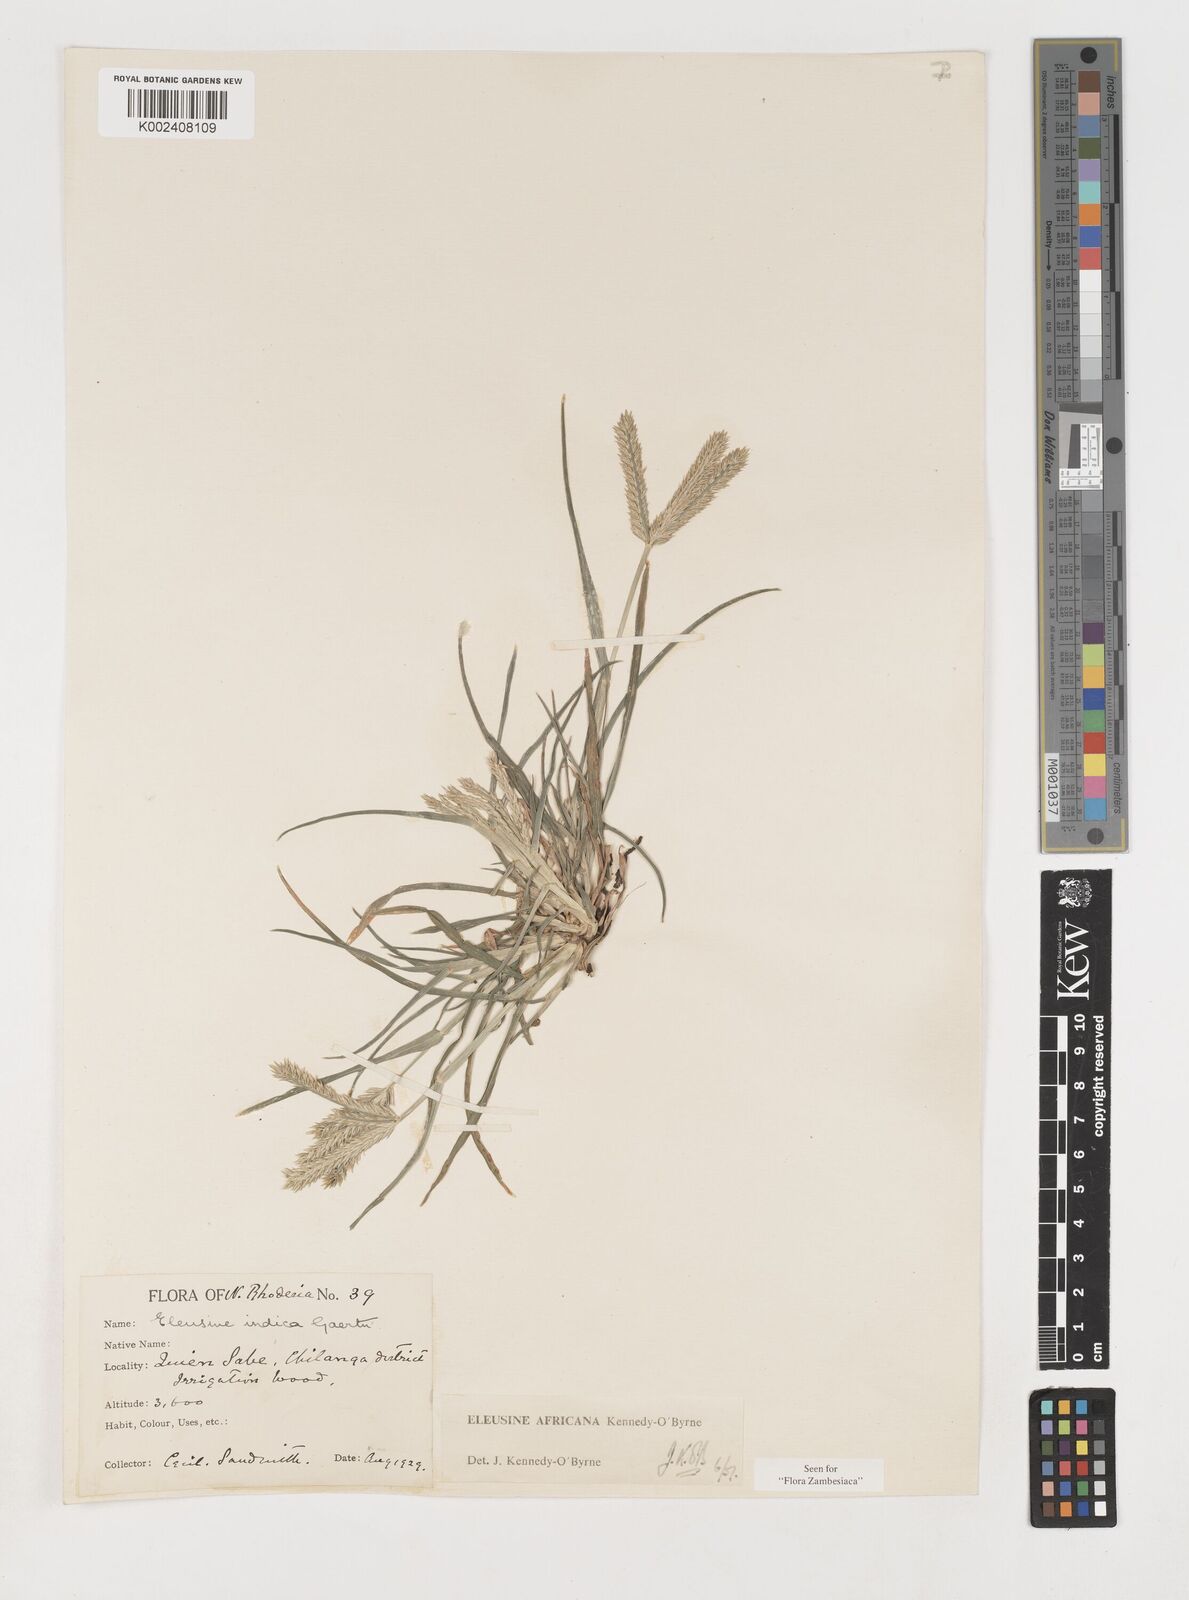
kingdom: Plantae
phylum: Tracheophyta
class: Liliopsida
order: Poales
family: Poaceae
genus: Eleusine
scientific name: Eleusine africana
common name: Wild african finger millet
